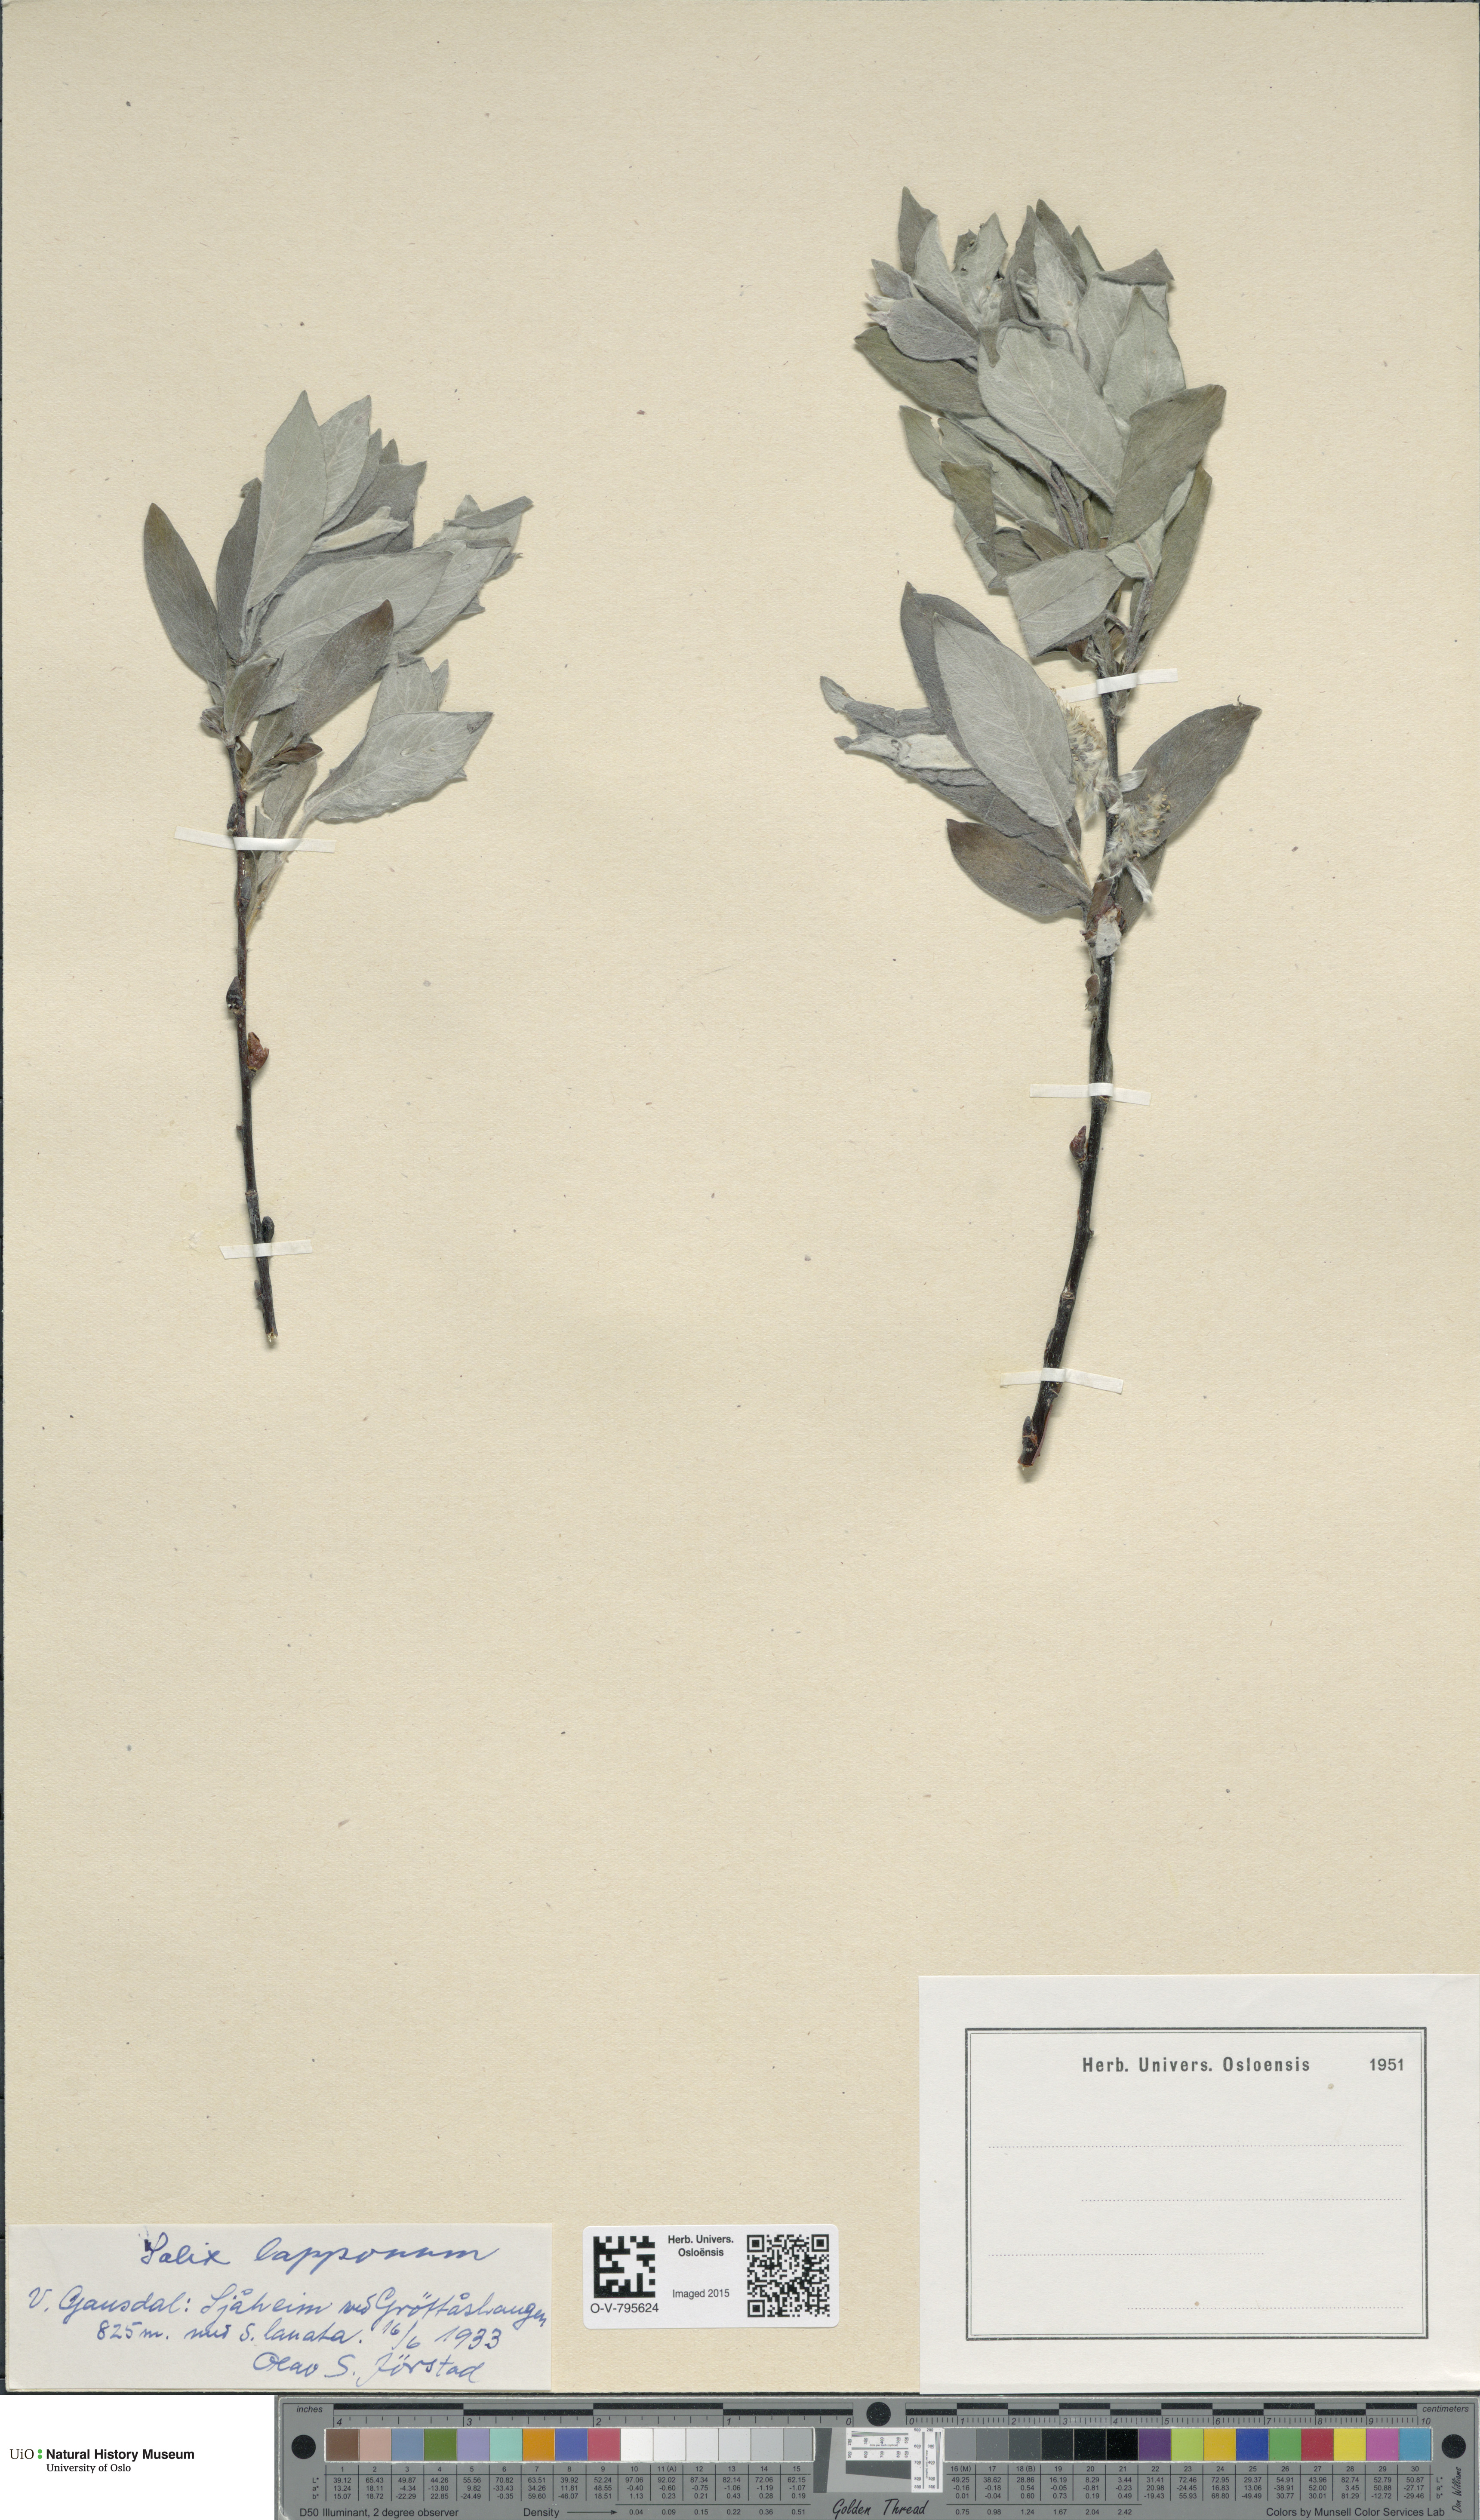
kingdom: Plantae
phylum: Tracheophyta
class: Magnoliopsida
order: Malpighiales
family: Salicaceae
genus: Salix
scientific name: Salix lapponum
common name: Downy willow
